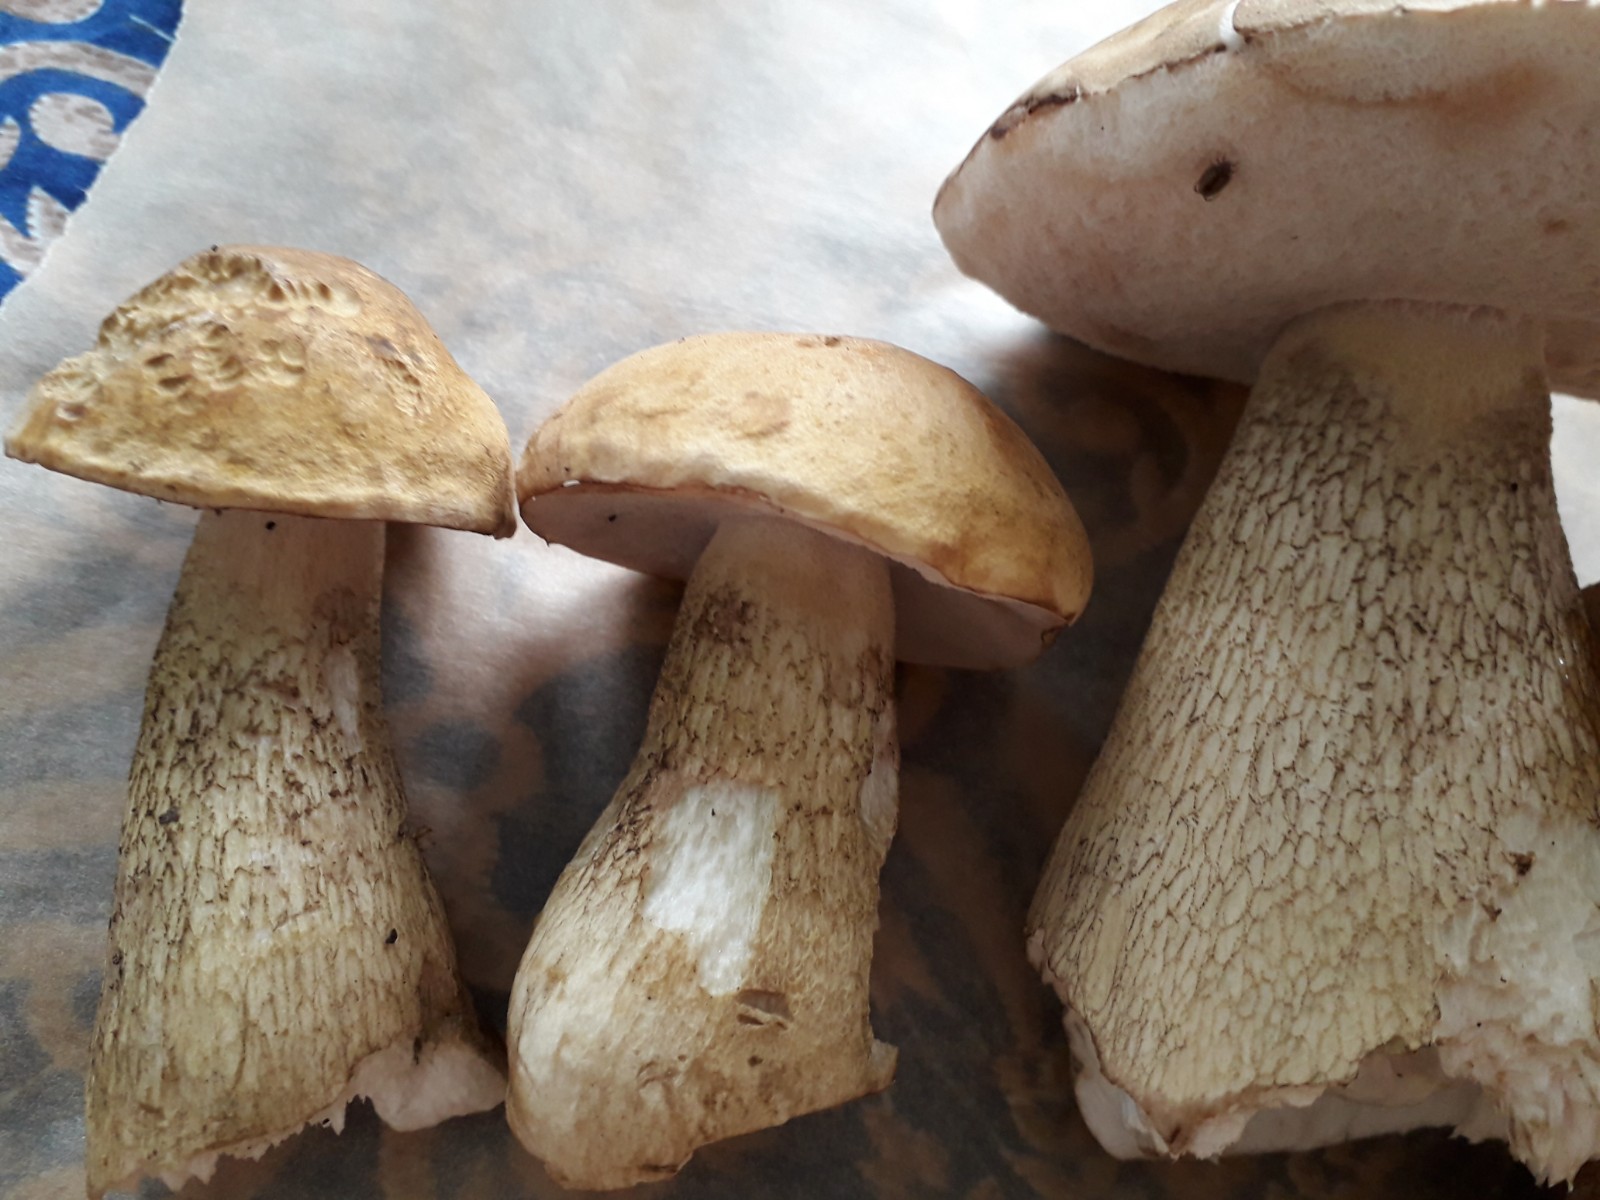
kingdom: Fungi
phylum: Basidiomycota
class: Agaricomycetes
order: Boletales
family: Boletaceae
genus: Tylopilus
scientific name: Tylopilus felleus
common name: galderørhat
